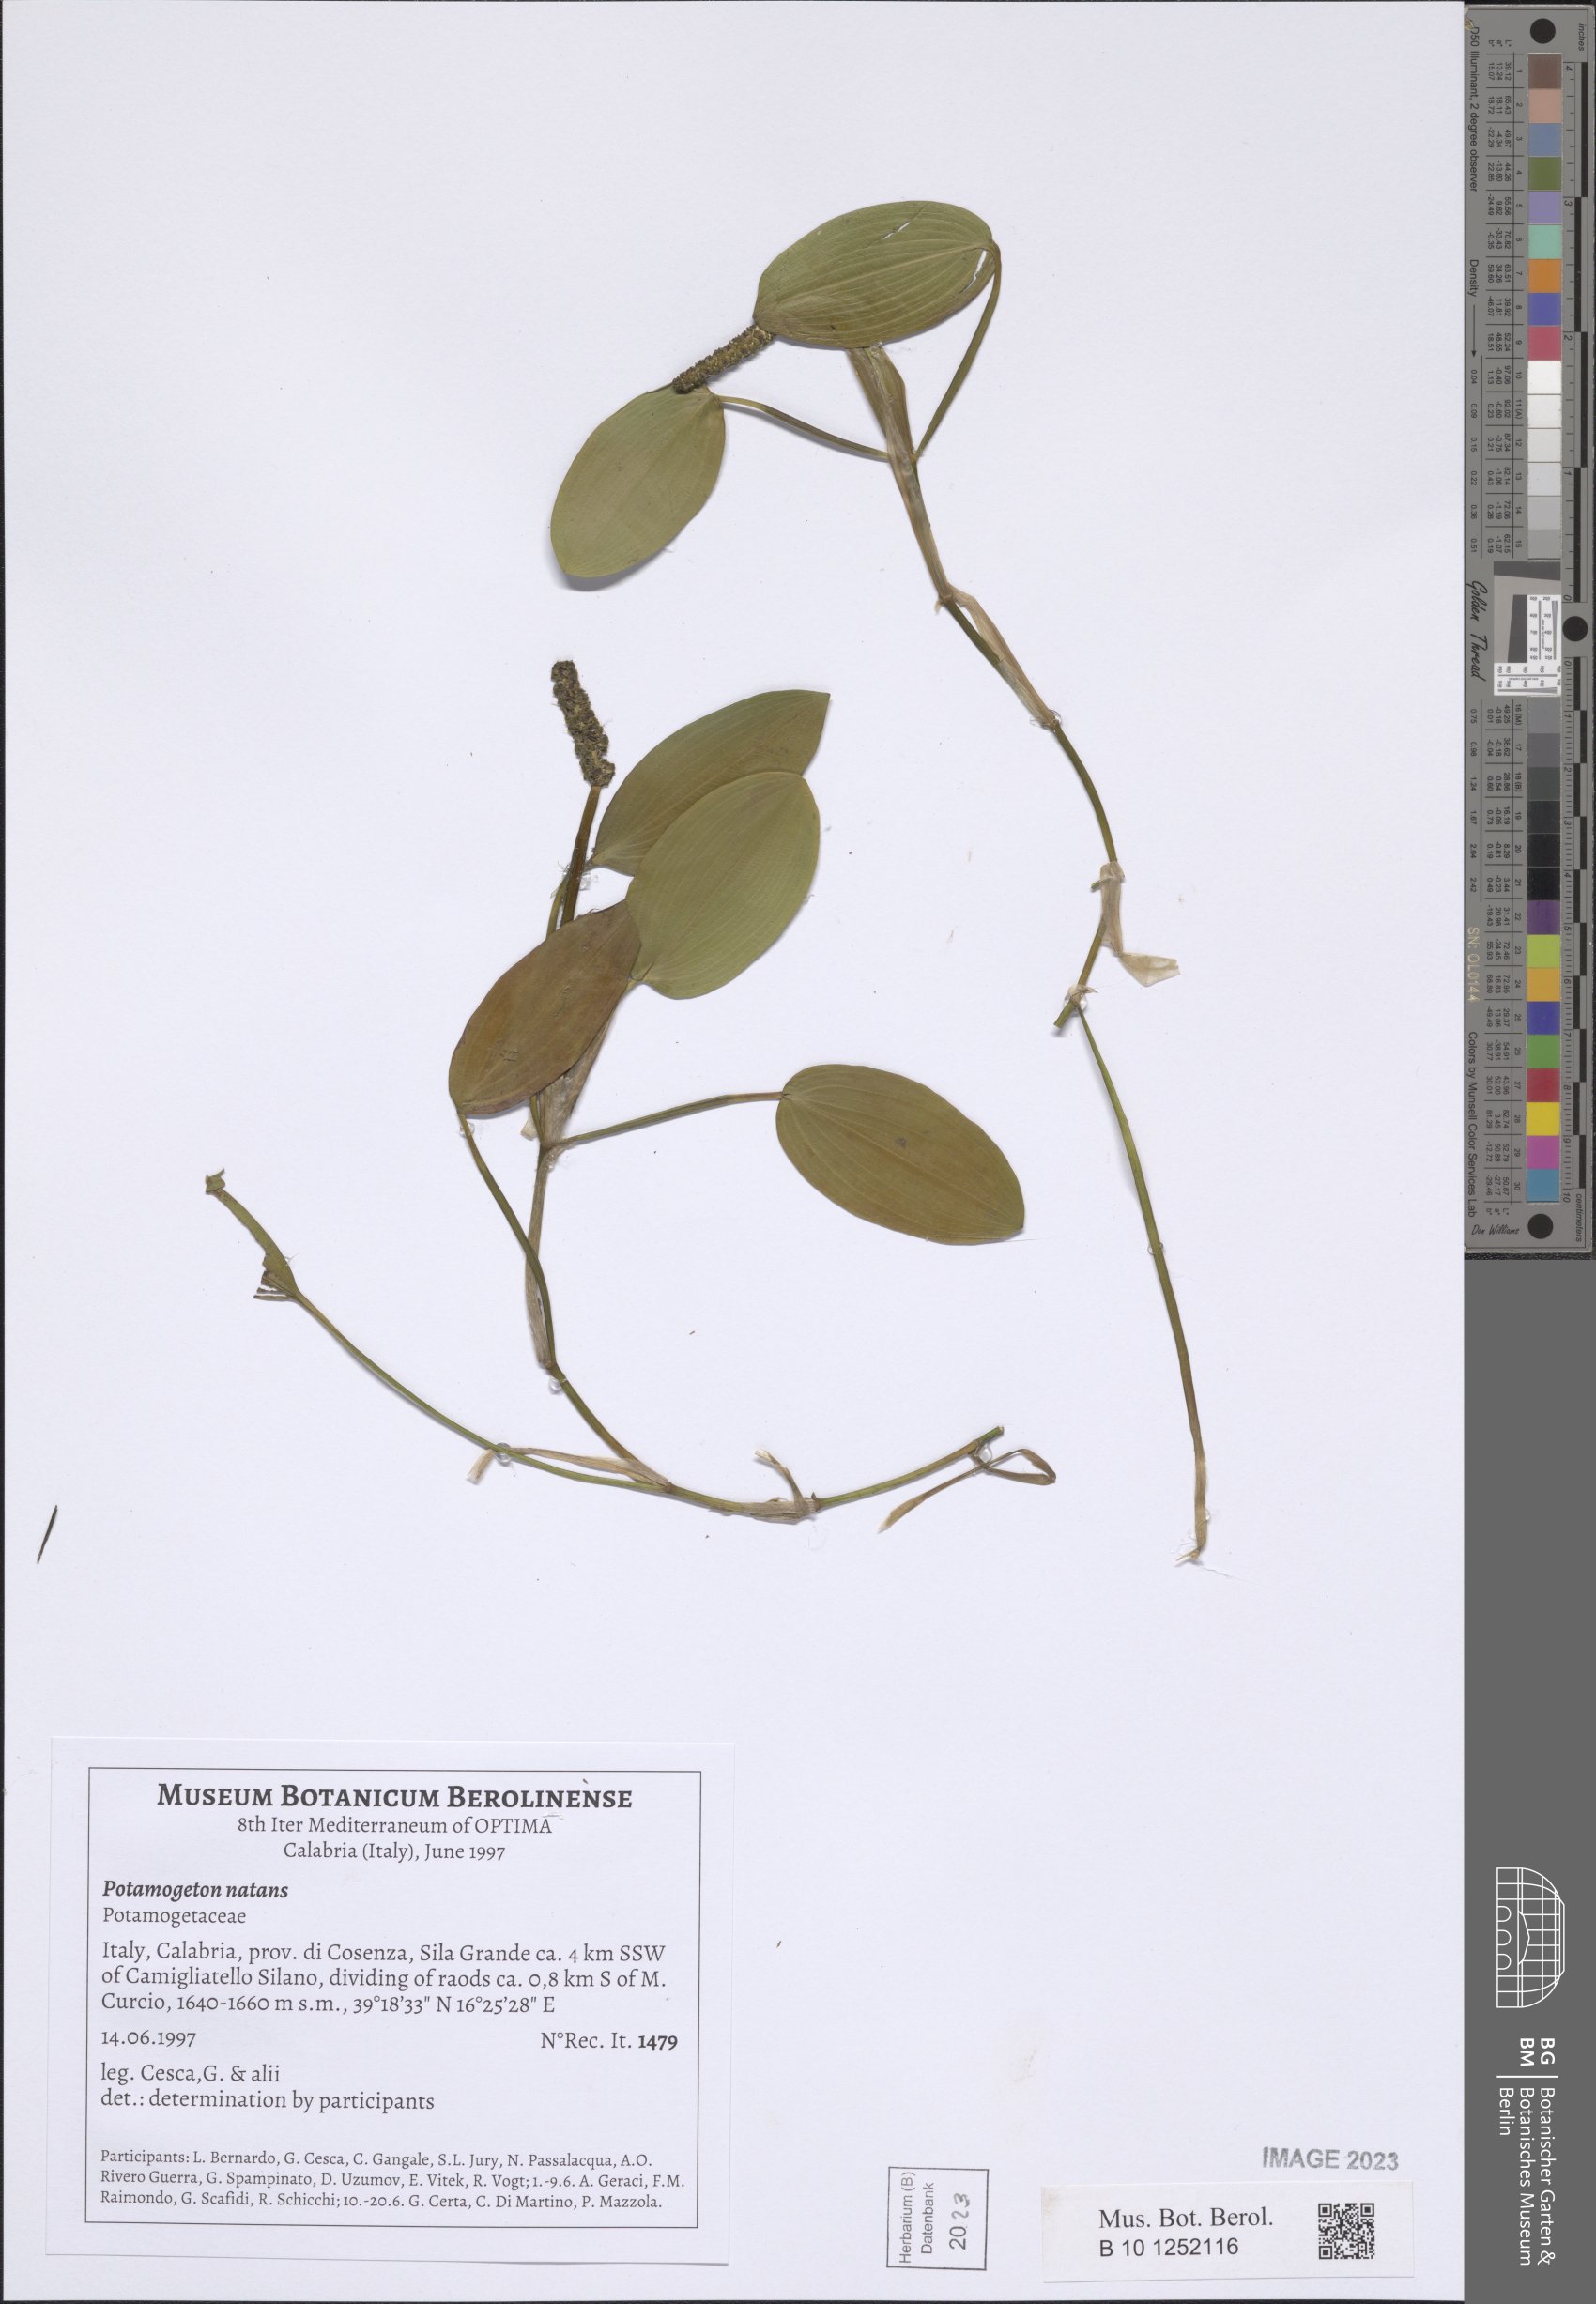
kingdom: Plantae
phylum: Tracheophyta
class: Liliopsida
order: Alismatales
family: Potamogetonaceae
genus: Potamogeton
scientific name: Potamogeton natans
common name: Broad-leaved pondweed
